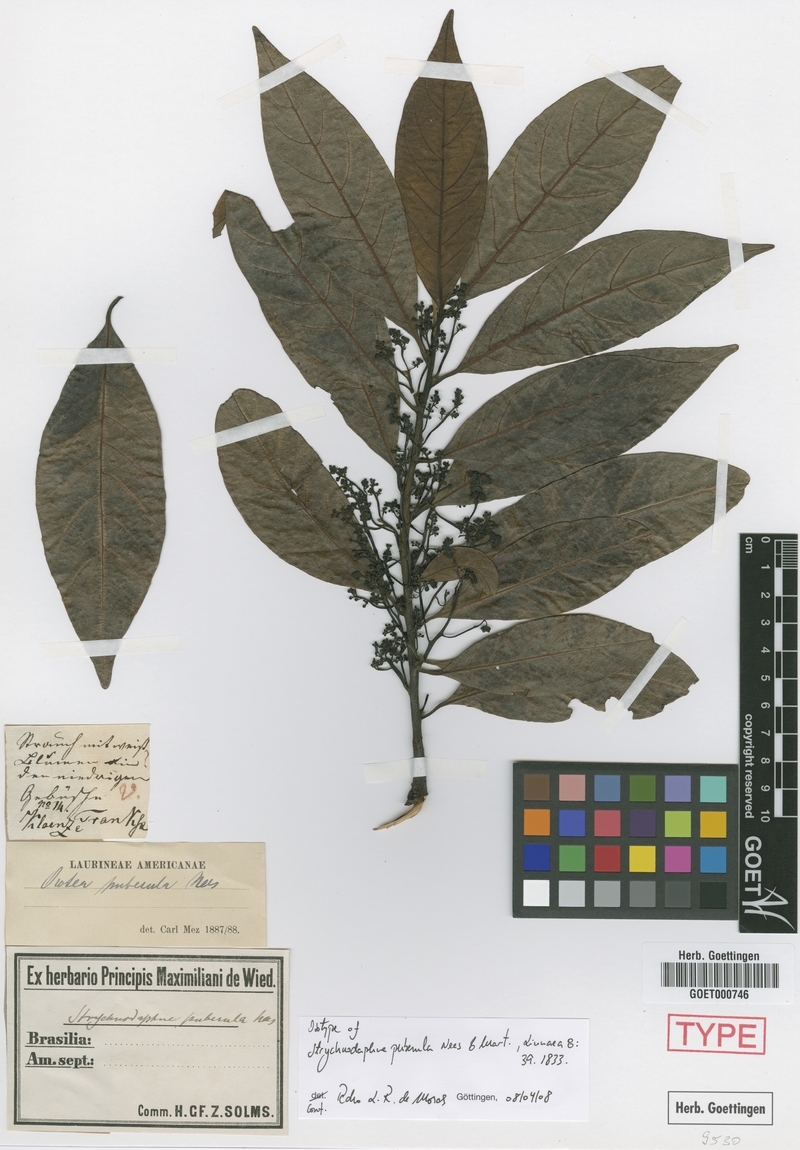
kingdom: Plantae
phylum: Tracheophyta
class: Magnoliopsida
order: Laurales
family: Lauraceae
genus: Ocotea
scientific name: Ocotea puberula
